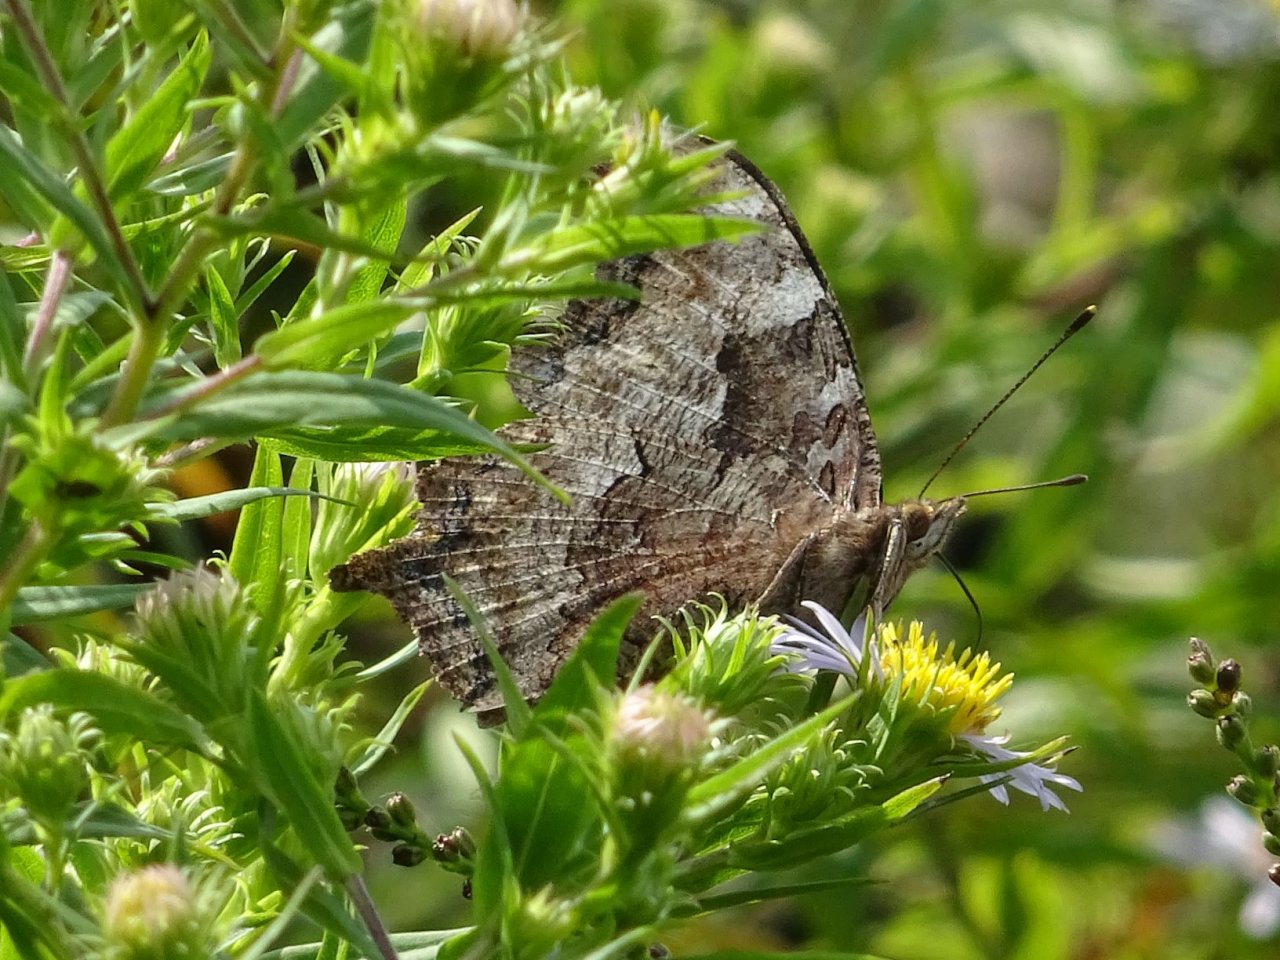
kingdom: Animalia
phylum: Arthropoda
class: Insecta
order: Lepidoptera
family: Nymphalidae
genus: Polygonia
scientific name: Polygonia vaualbum
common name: Compton Tortoiseshell
